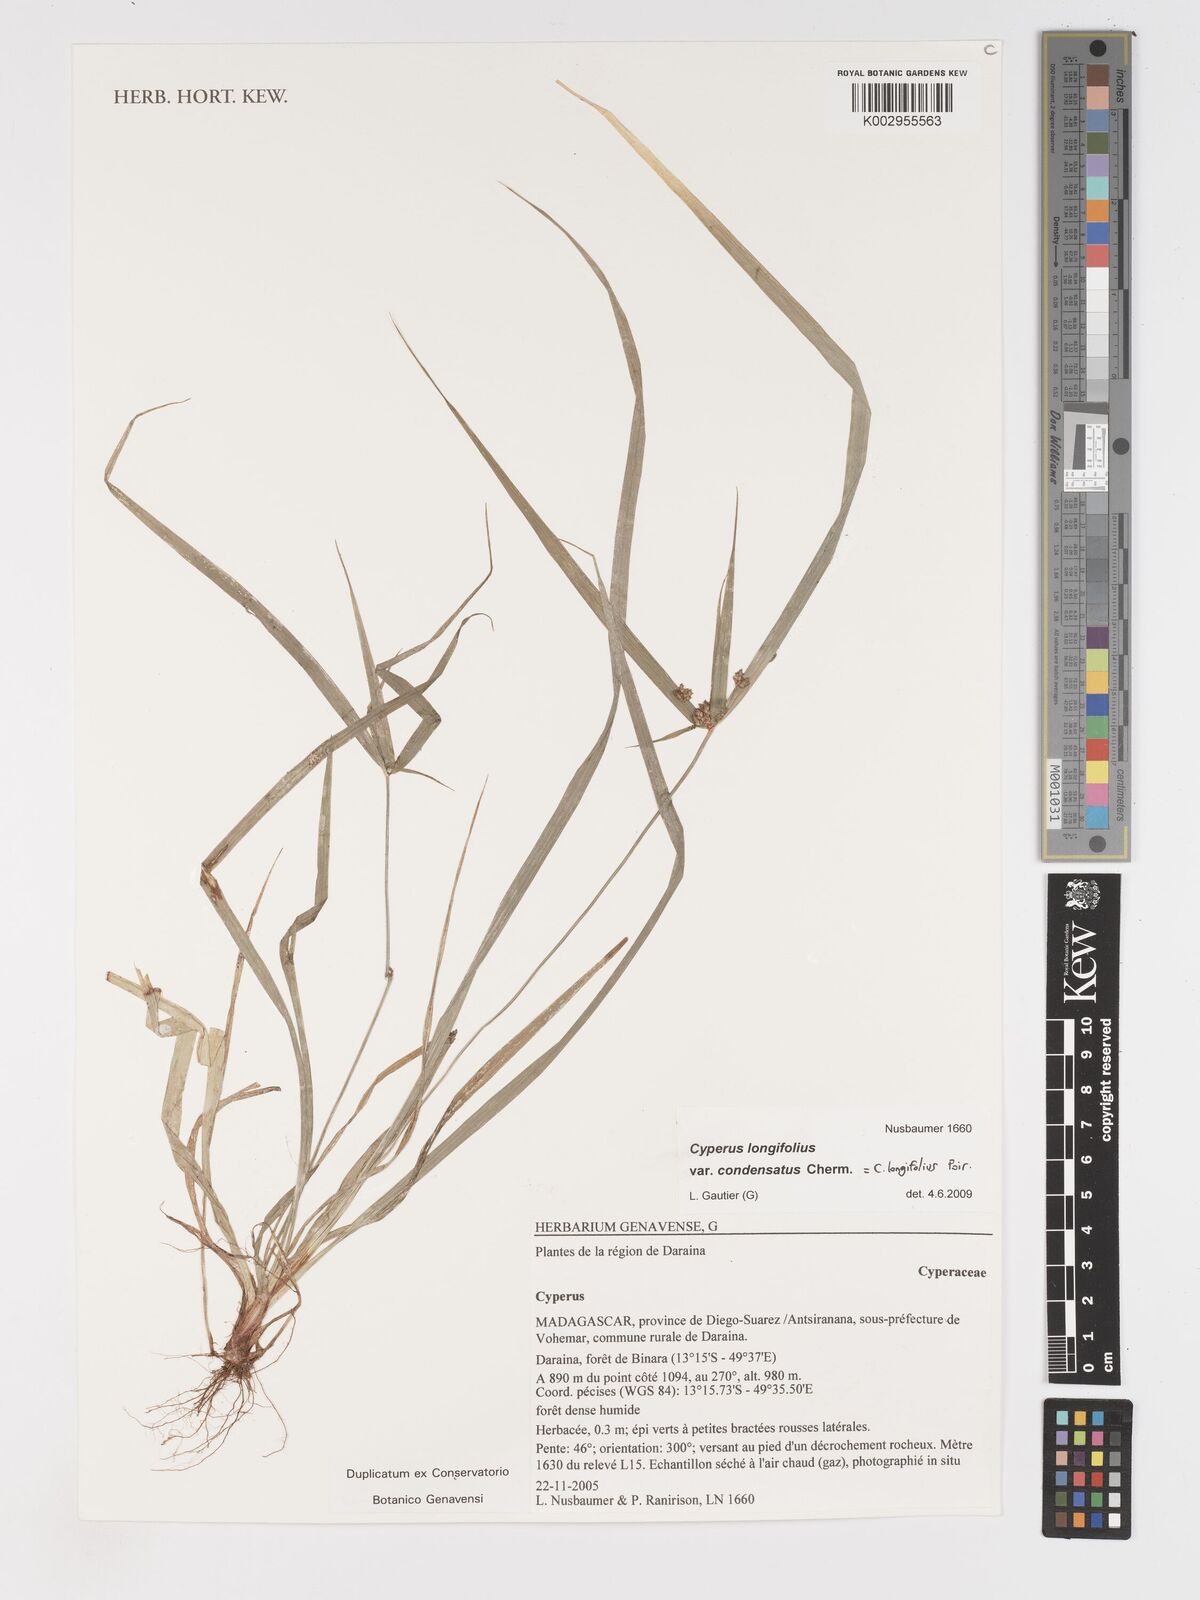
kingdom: Plantae
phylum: Tracheophyta
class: Liliopsida
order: Poales
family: Cyperaceae
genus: Cyperus
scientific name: Cyperus longifolius
